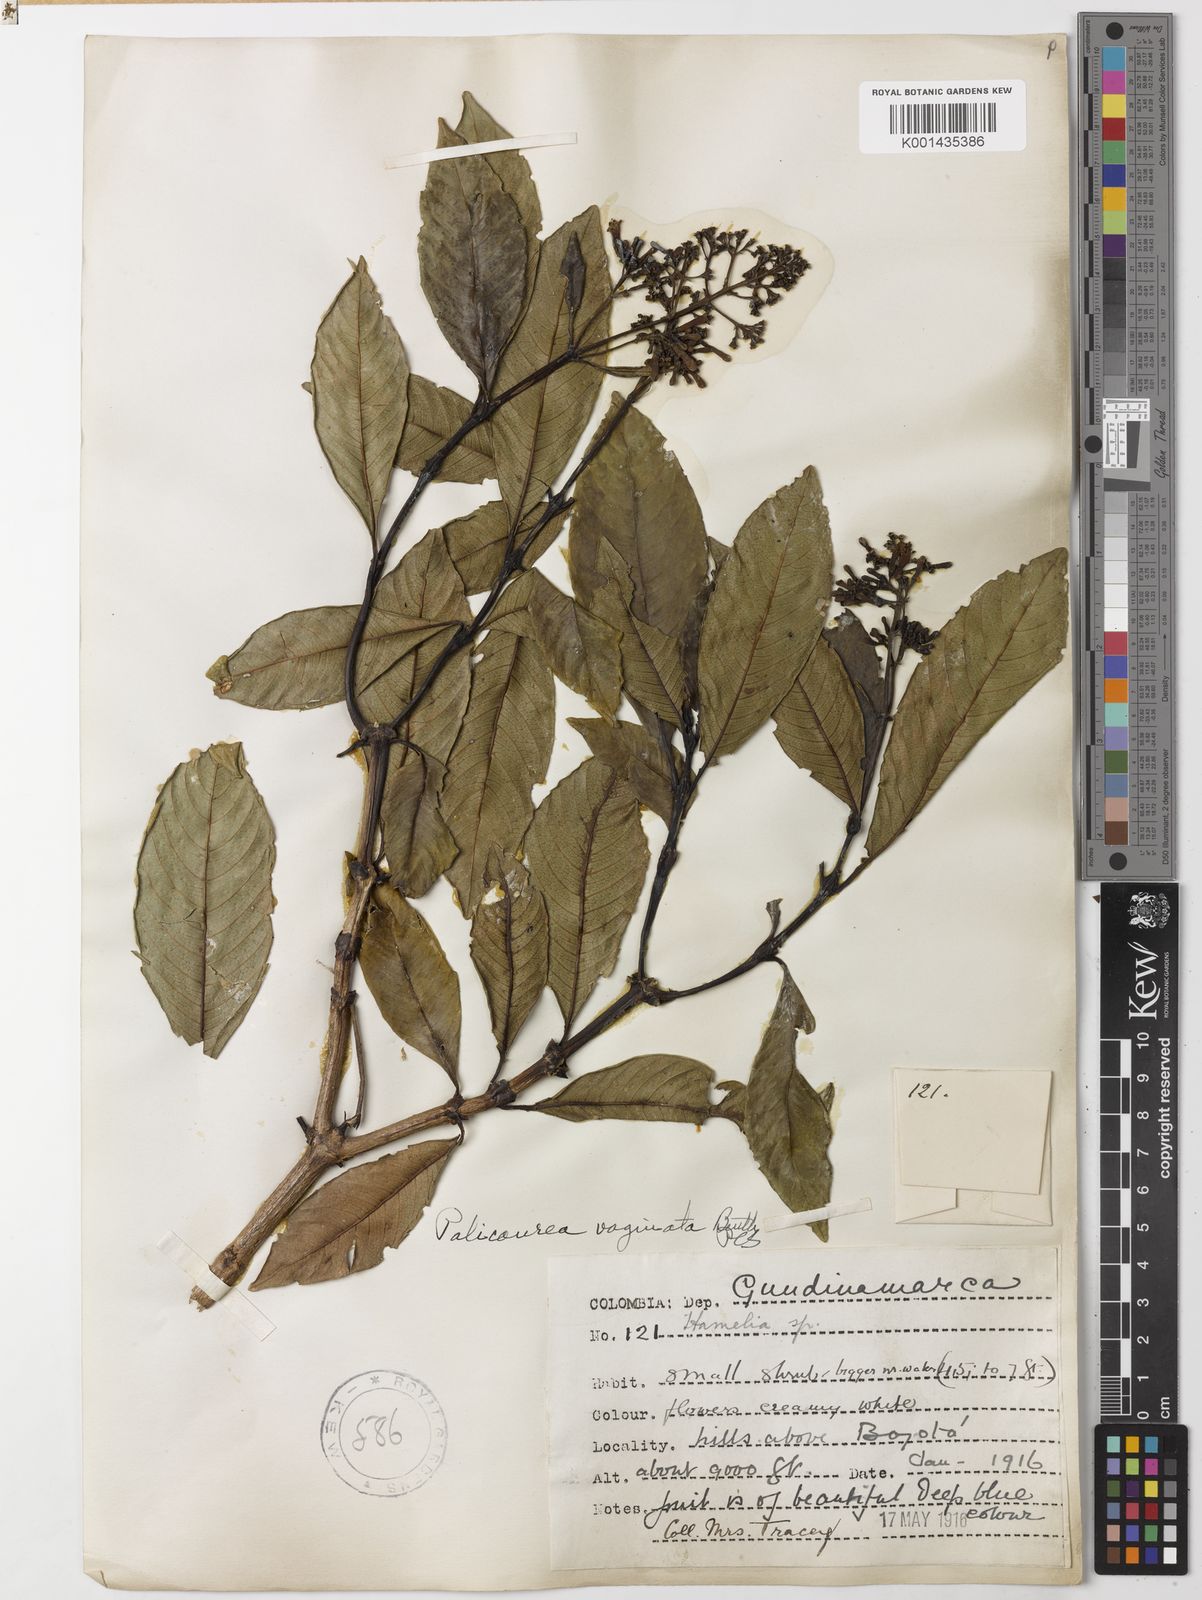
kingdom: Plantae
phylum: Tracheophyta
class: Magnoliopsida
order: Gentianales
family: Rubiaceae
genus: Palicourea
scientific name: Palicourea sulphurea
